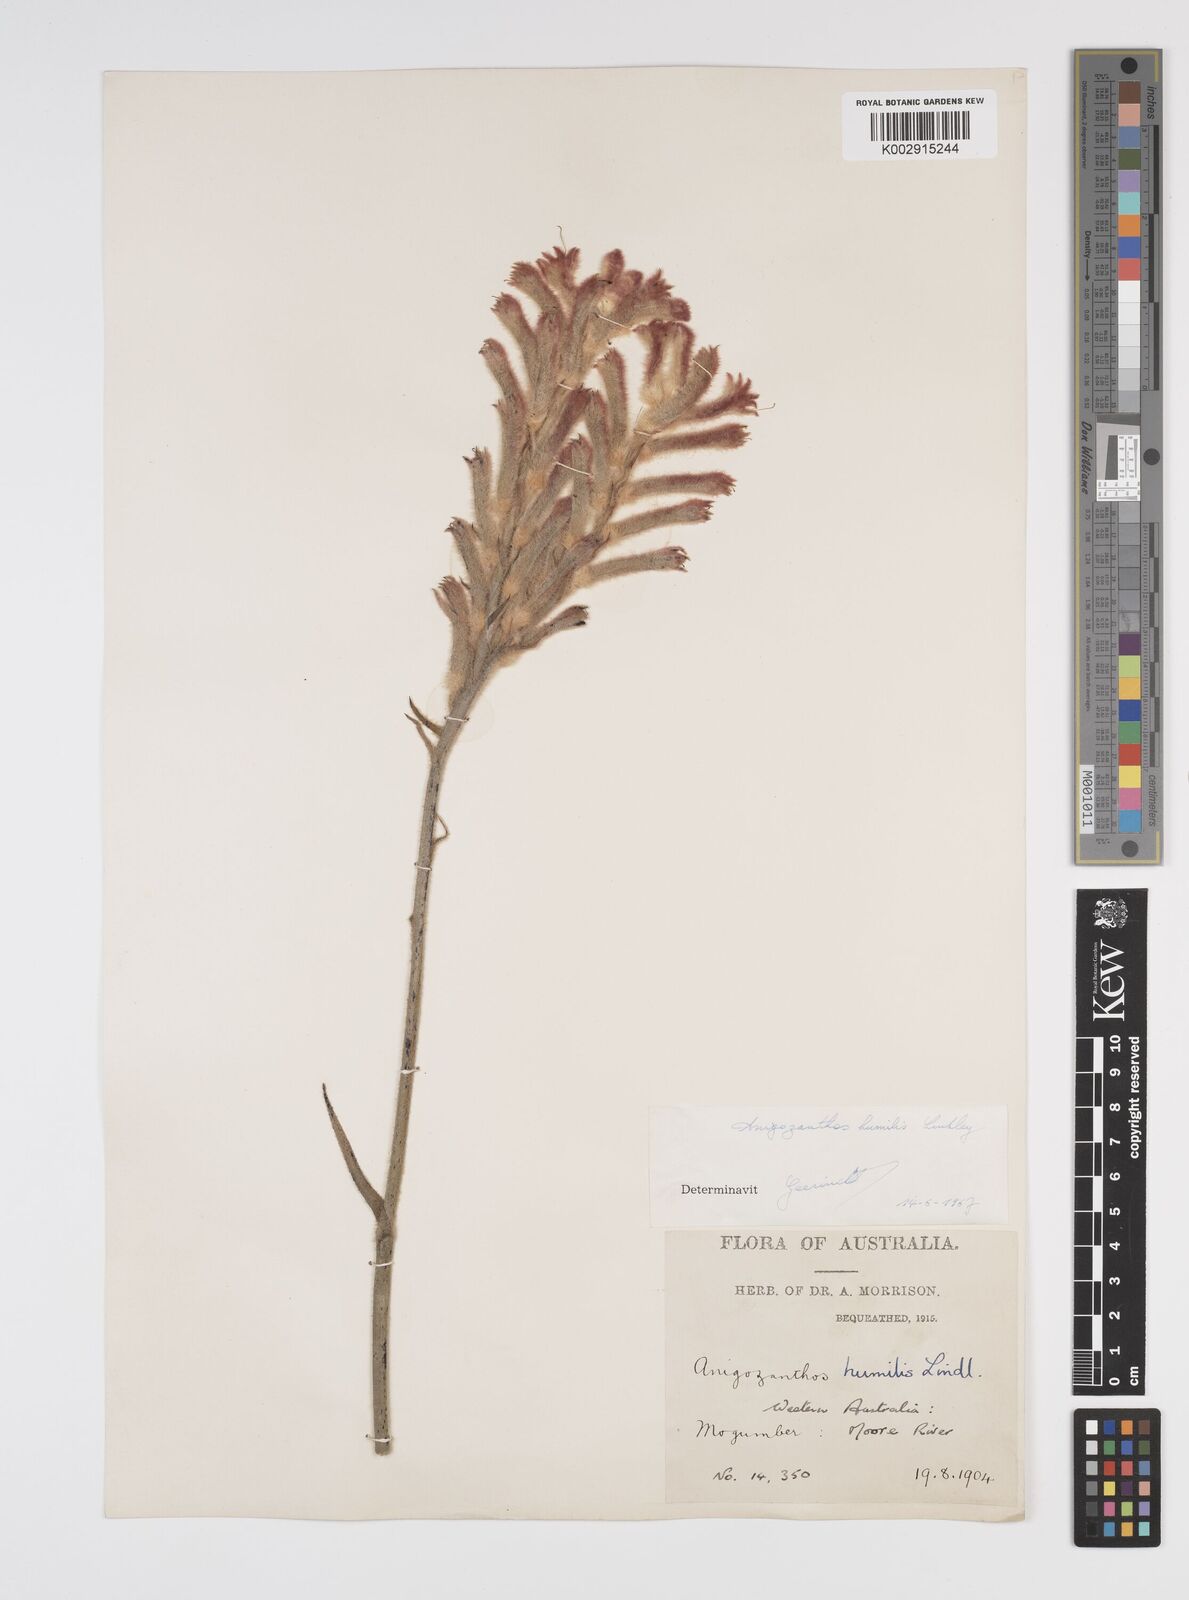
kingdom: Plantae
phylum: Tracheophyta
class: Liliopsida
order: Commelinales
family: Haemodoraceae
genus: Anigozanthos
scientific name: Anigozanthos humilis
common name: Cat's-paw
